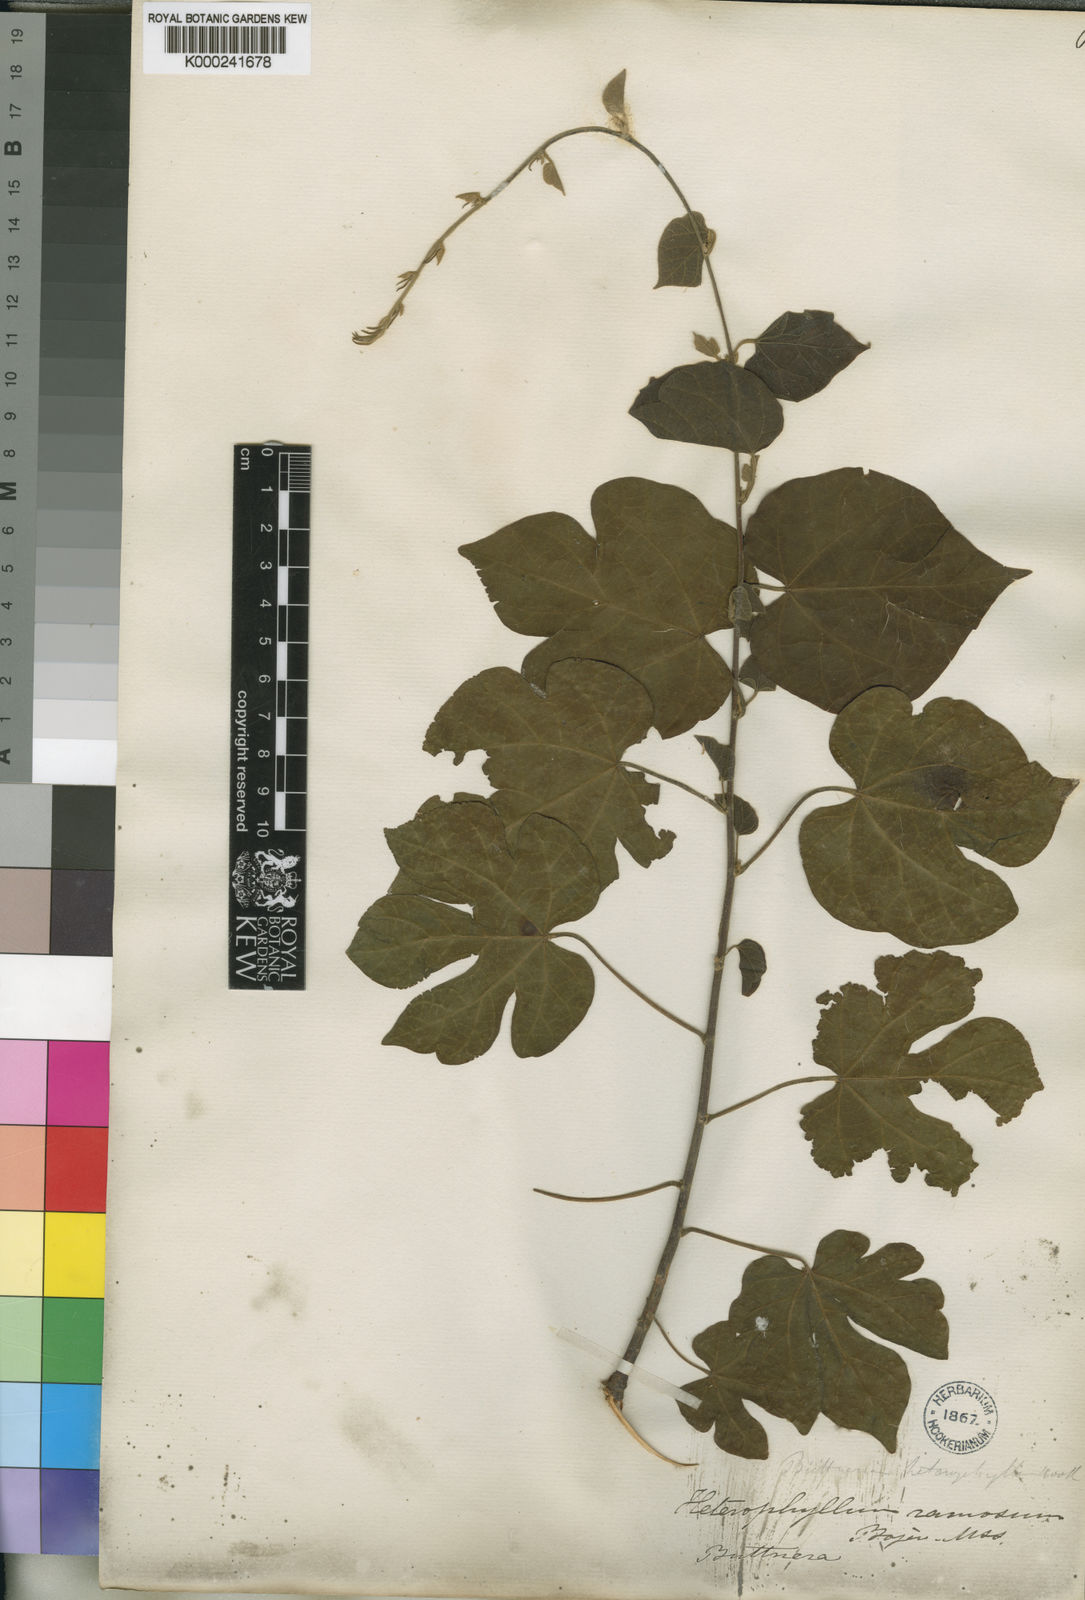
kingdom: Plantae
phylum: Tracheophyta
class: Magnoliopsida
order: Malvales
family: Malvaceae
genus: Byttneria
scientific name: Byttneria heterophylla
